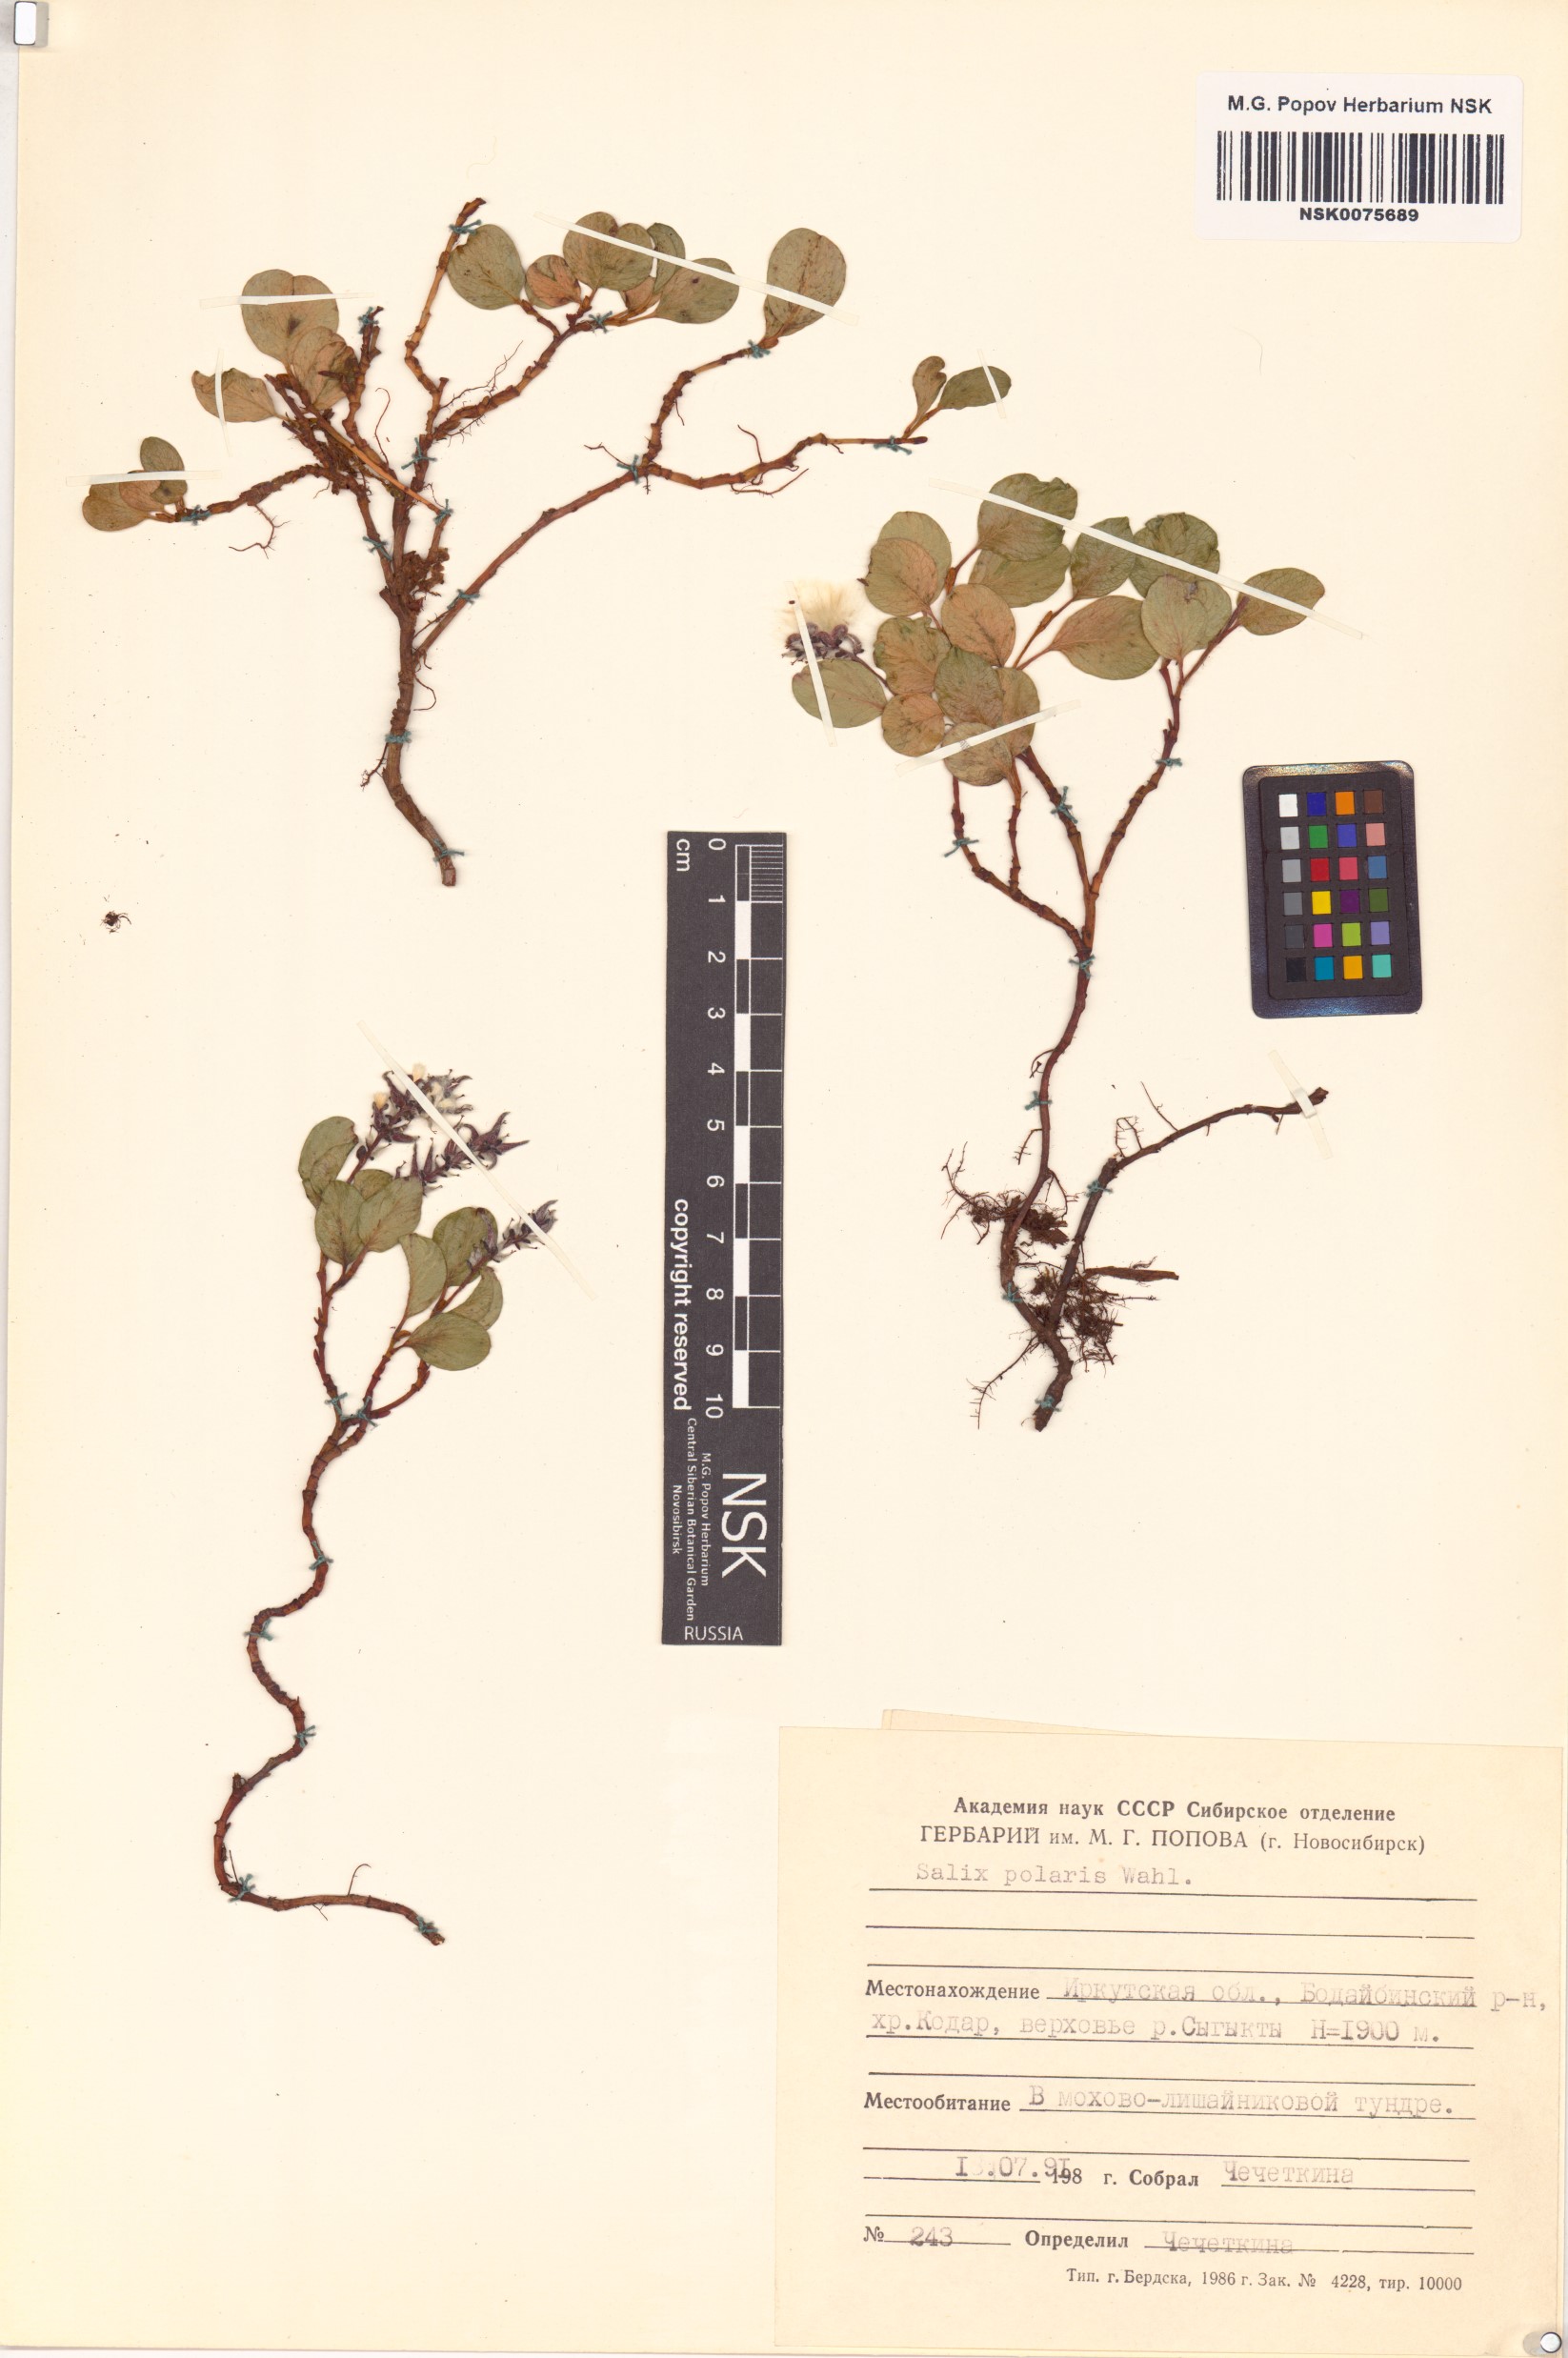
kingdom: Plantae
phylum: Tracheophyta
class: Magnoliopsida
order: Malpighiales
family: Salicaceae
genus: Salix
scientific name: Salix polaris
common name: Polar willow
